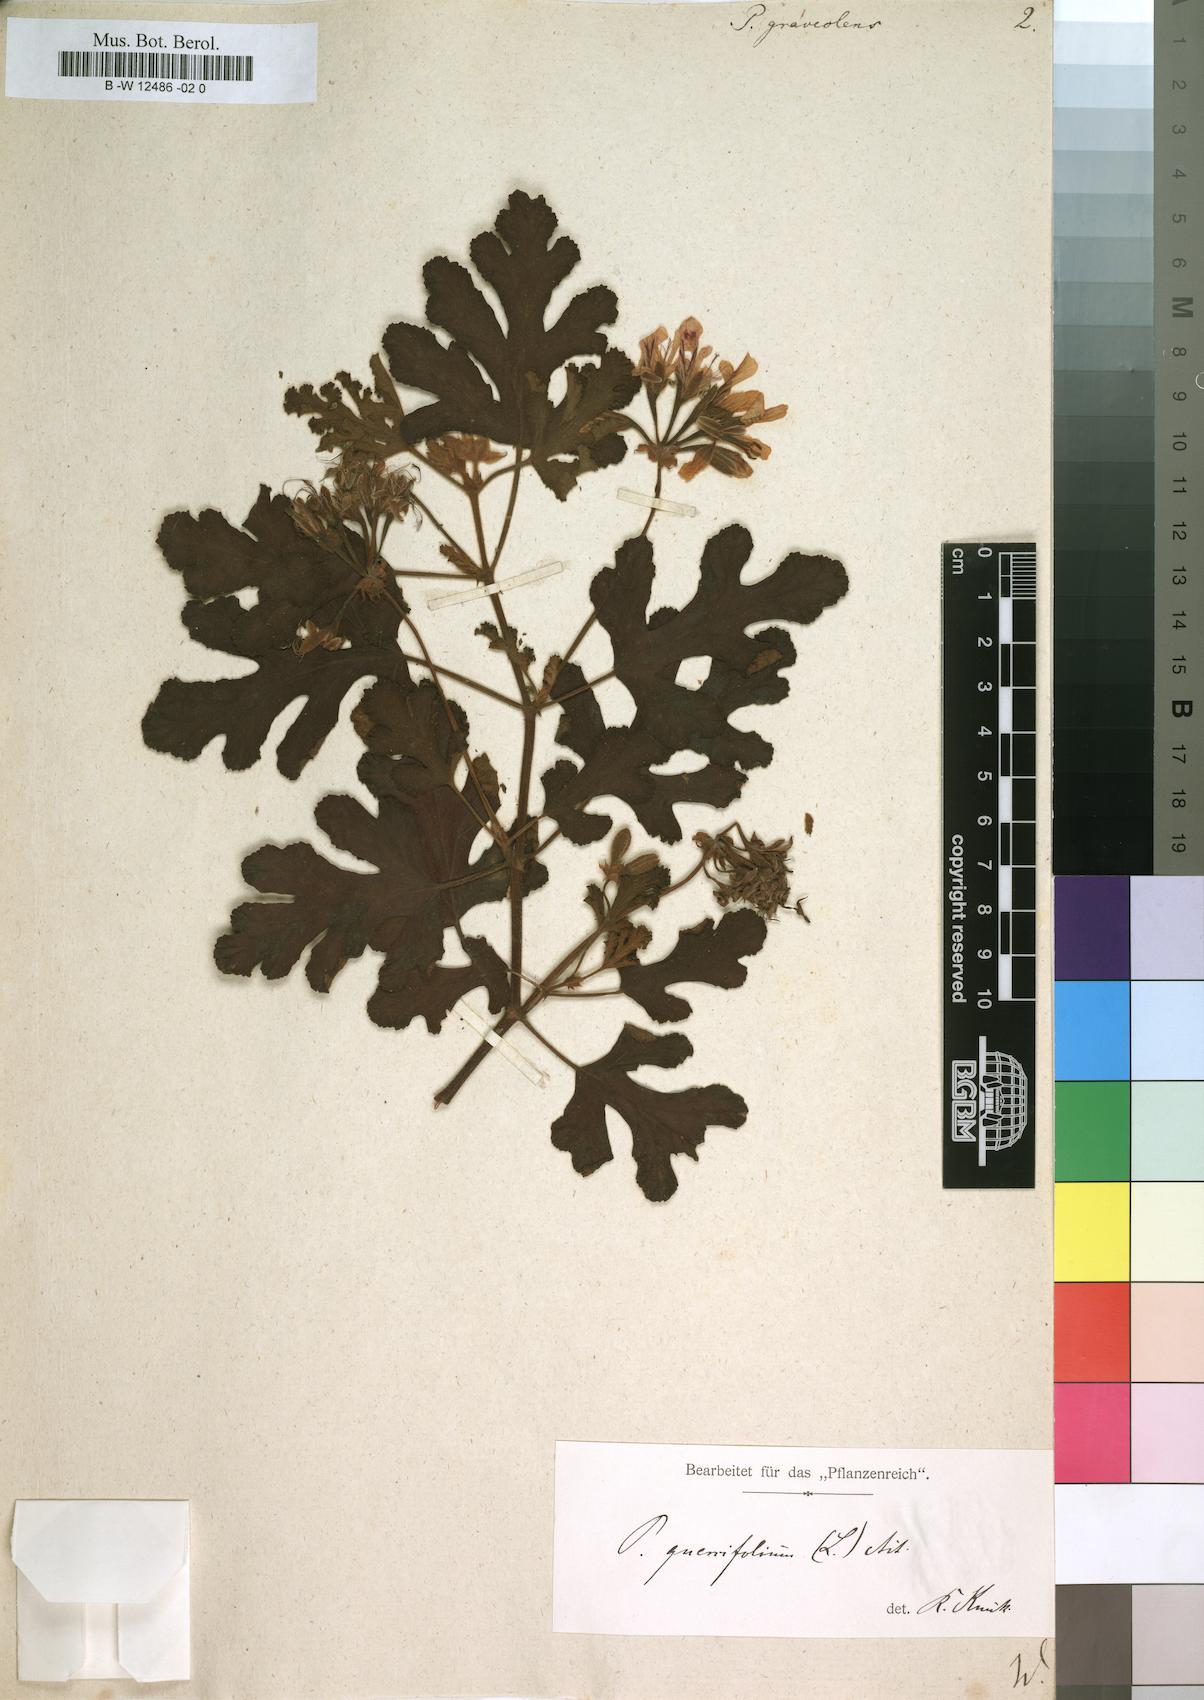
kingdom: Plantae
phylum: Tracheophyta
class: Magnoliopsida
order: Geraniales
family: Geraniaceae
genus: Pelargonium
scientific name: Pelargonium graveolens
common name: Rose-scent geranium
